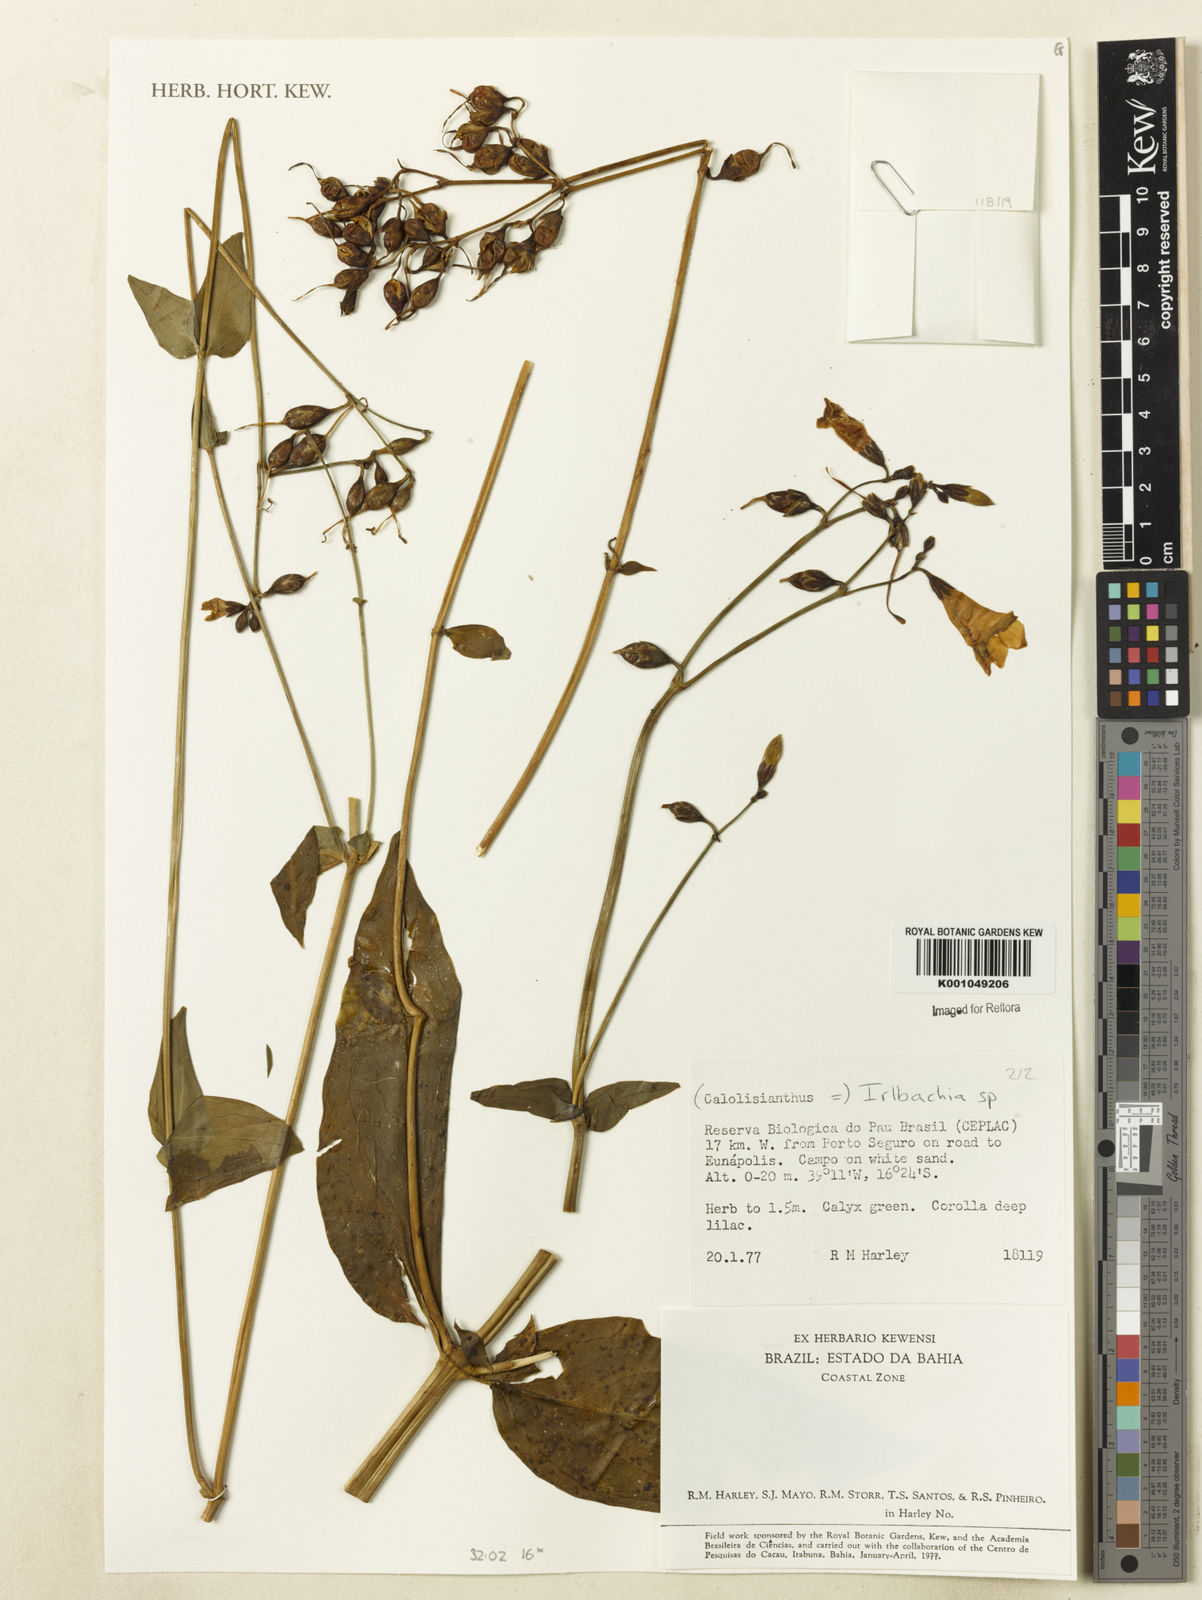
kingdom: Plantae
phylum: Tracheophyta
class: Magnoliopsida
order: Gentianales
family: Gentianaceae
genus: Irlbachia
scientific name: Irlbachia
